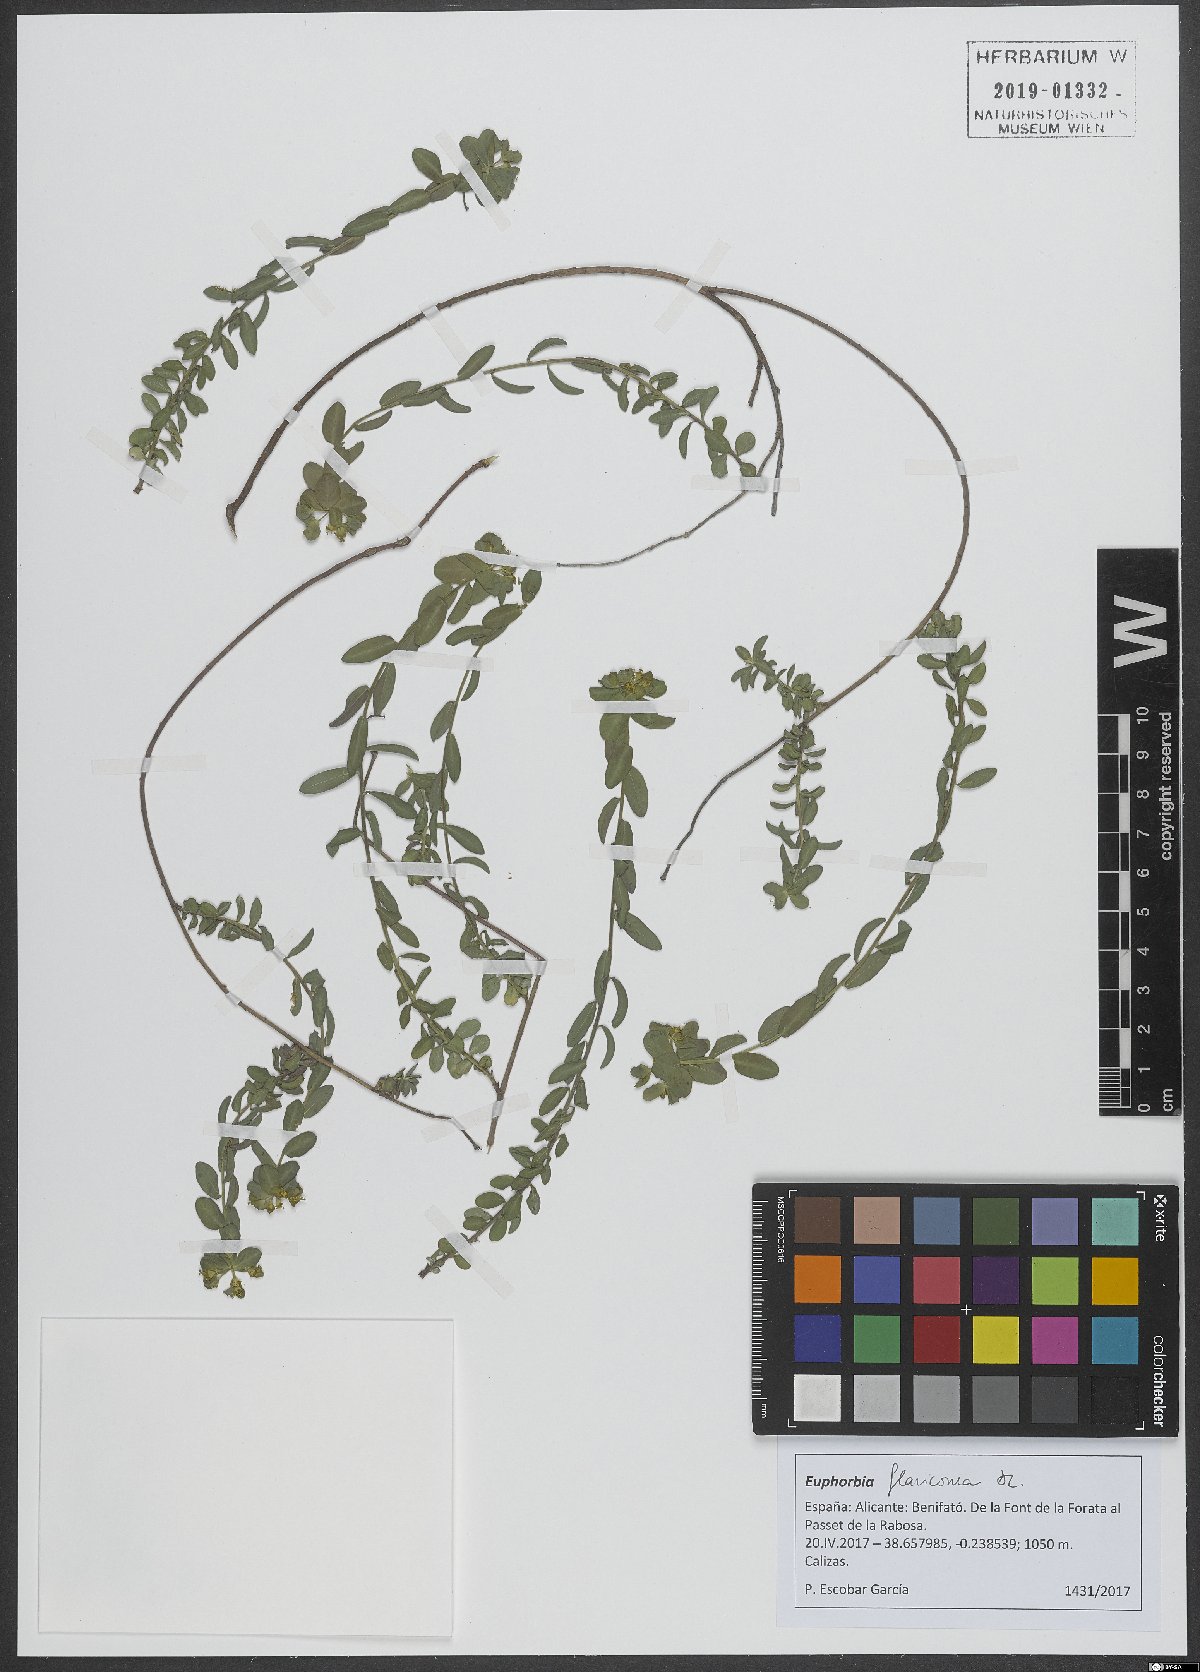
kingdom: Plantae
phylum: Tracheophyta
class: Magnoliopsida
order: Malpighiales
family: Euphorbiaceae
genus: Euphorbia
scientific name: Euphorbia flavicoma
